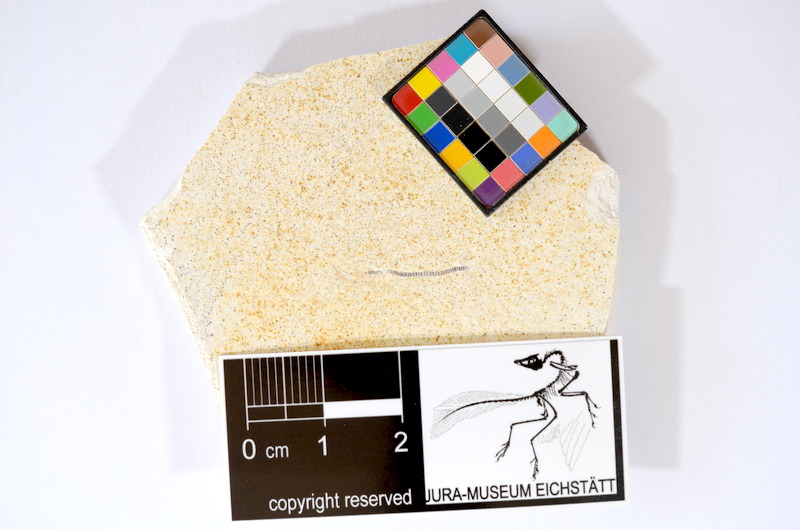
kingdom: Animalia
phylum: Chordata
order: Salmoniformes
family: Orthogonikleithridae
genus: Orthogonikleithrus
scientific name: Orthogonikleithrus hoelli
